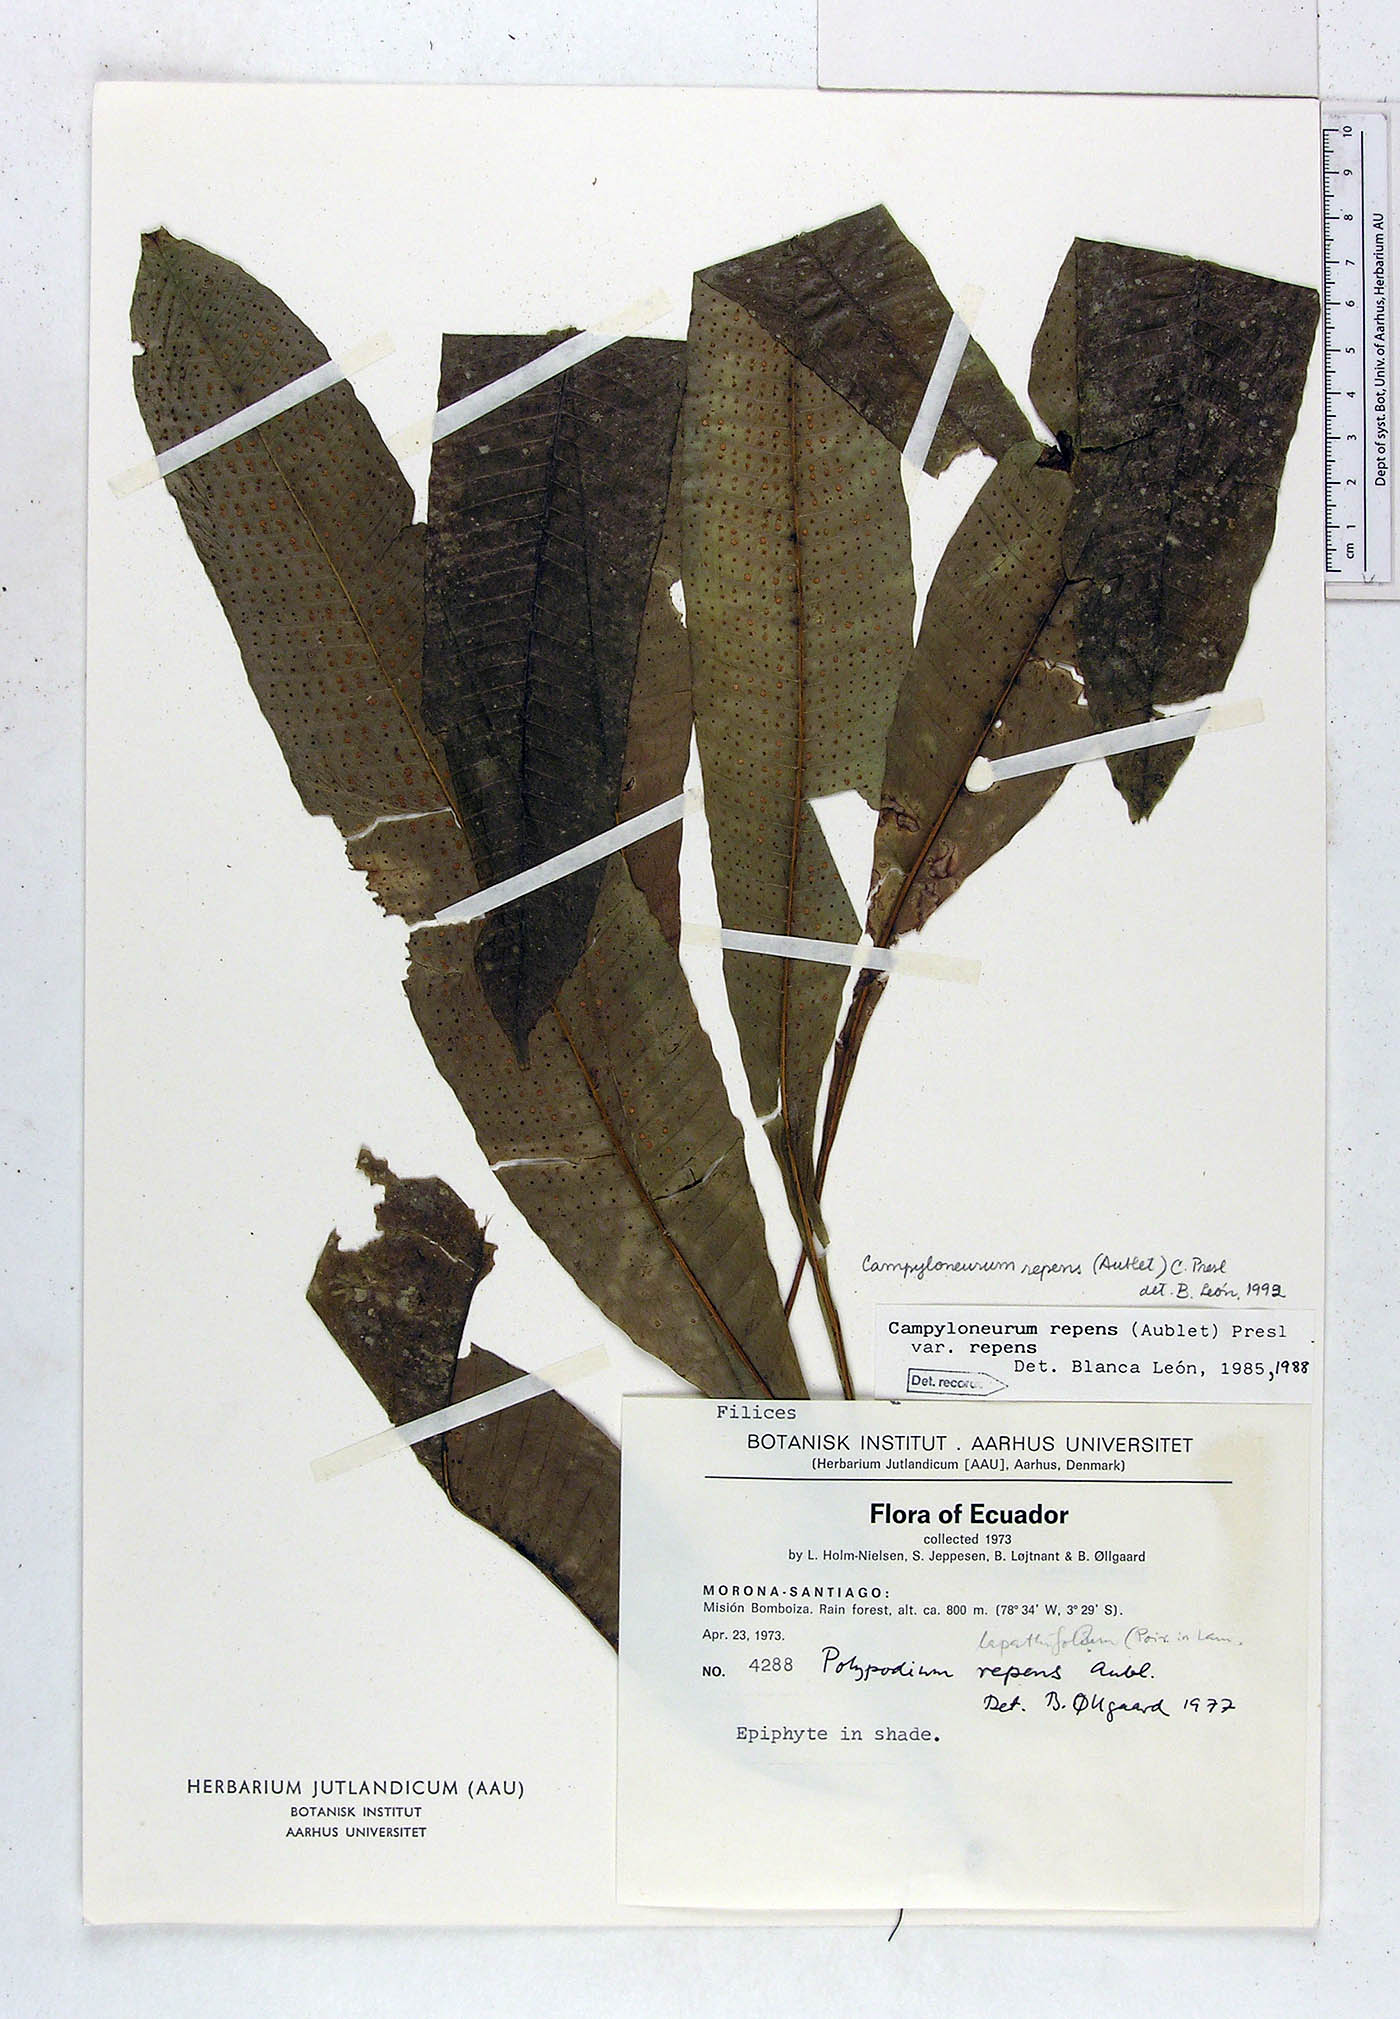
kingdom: Plantae
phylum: Tracheophyta
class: Polypodiopsida
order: Polypodiales
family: Polypodiaceae
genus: Campyloneurum
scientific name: Campyloneurum repens
